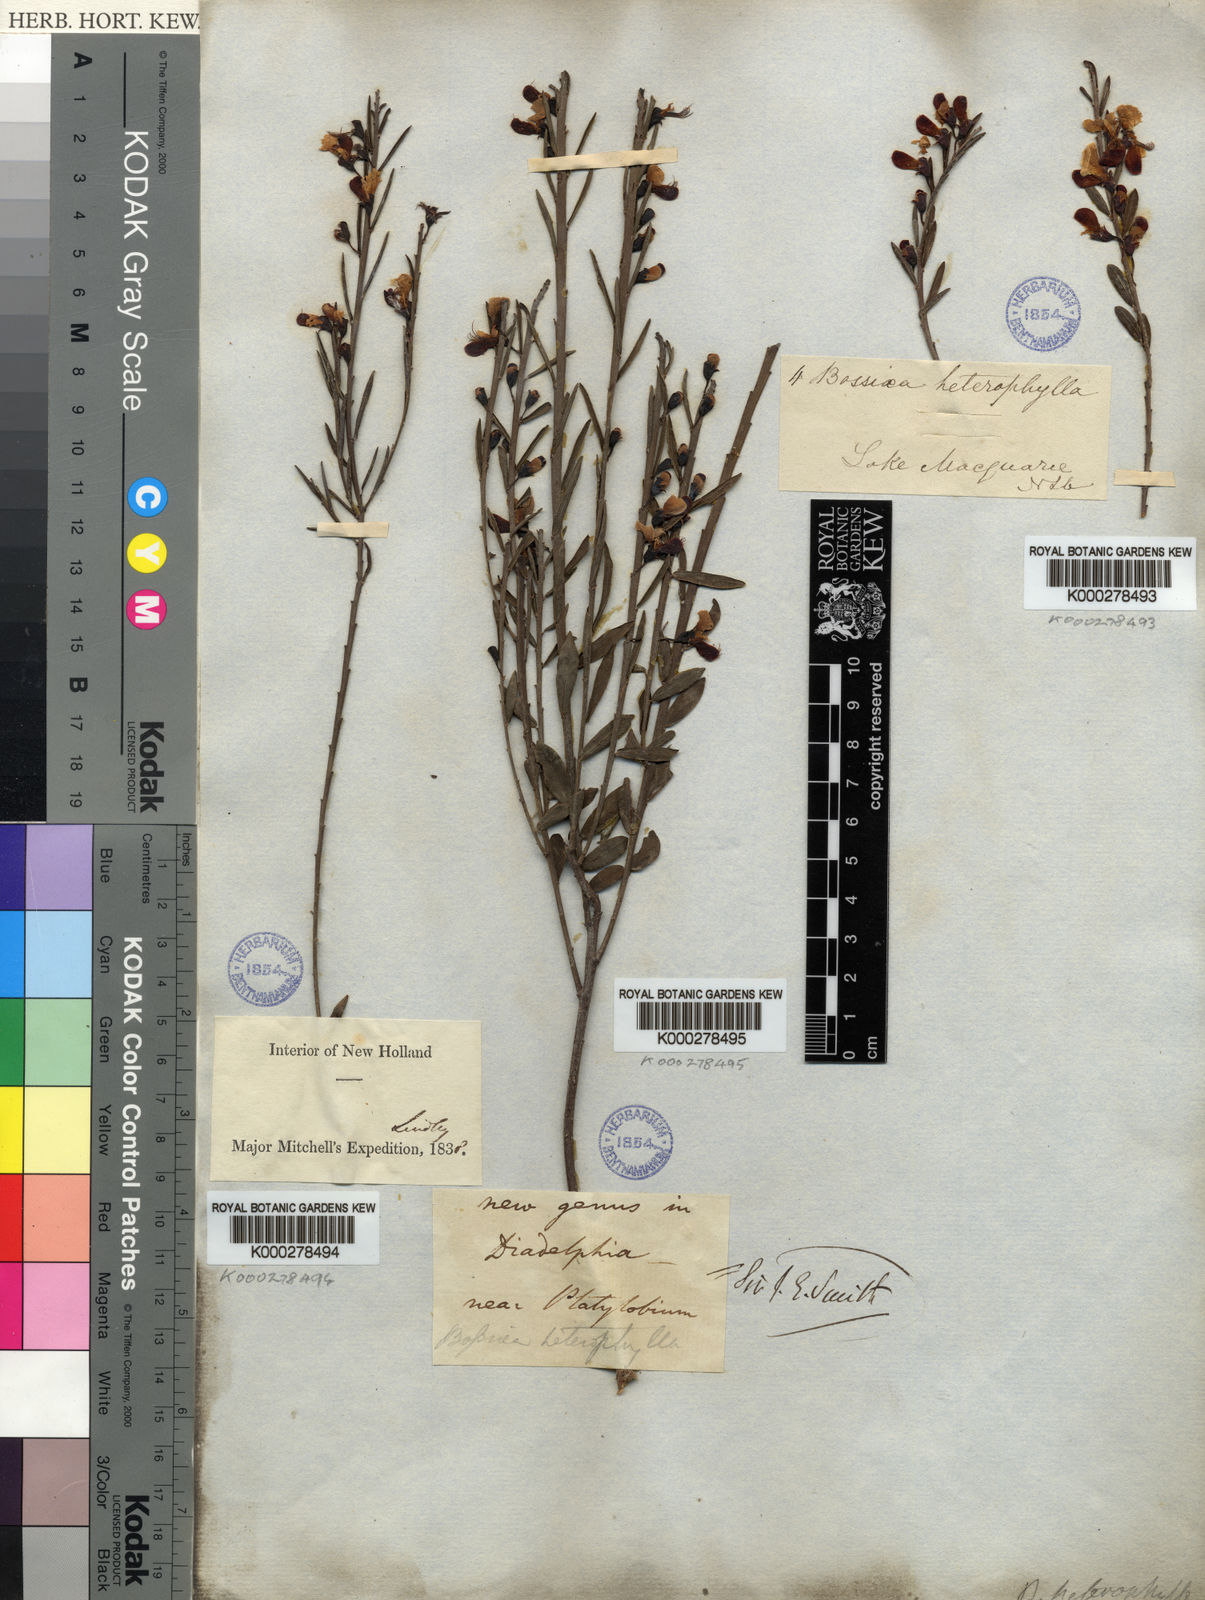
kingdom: Plantae
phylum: Tracheophyta
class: Magnoliopsida
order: Fabales
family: Fabaceae
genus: Bossiaea
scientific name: Bossiaea heterophylla
